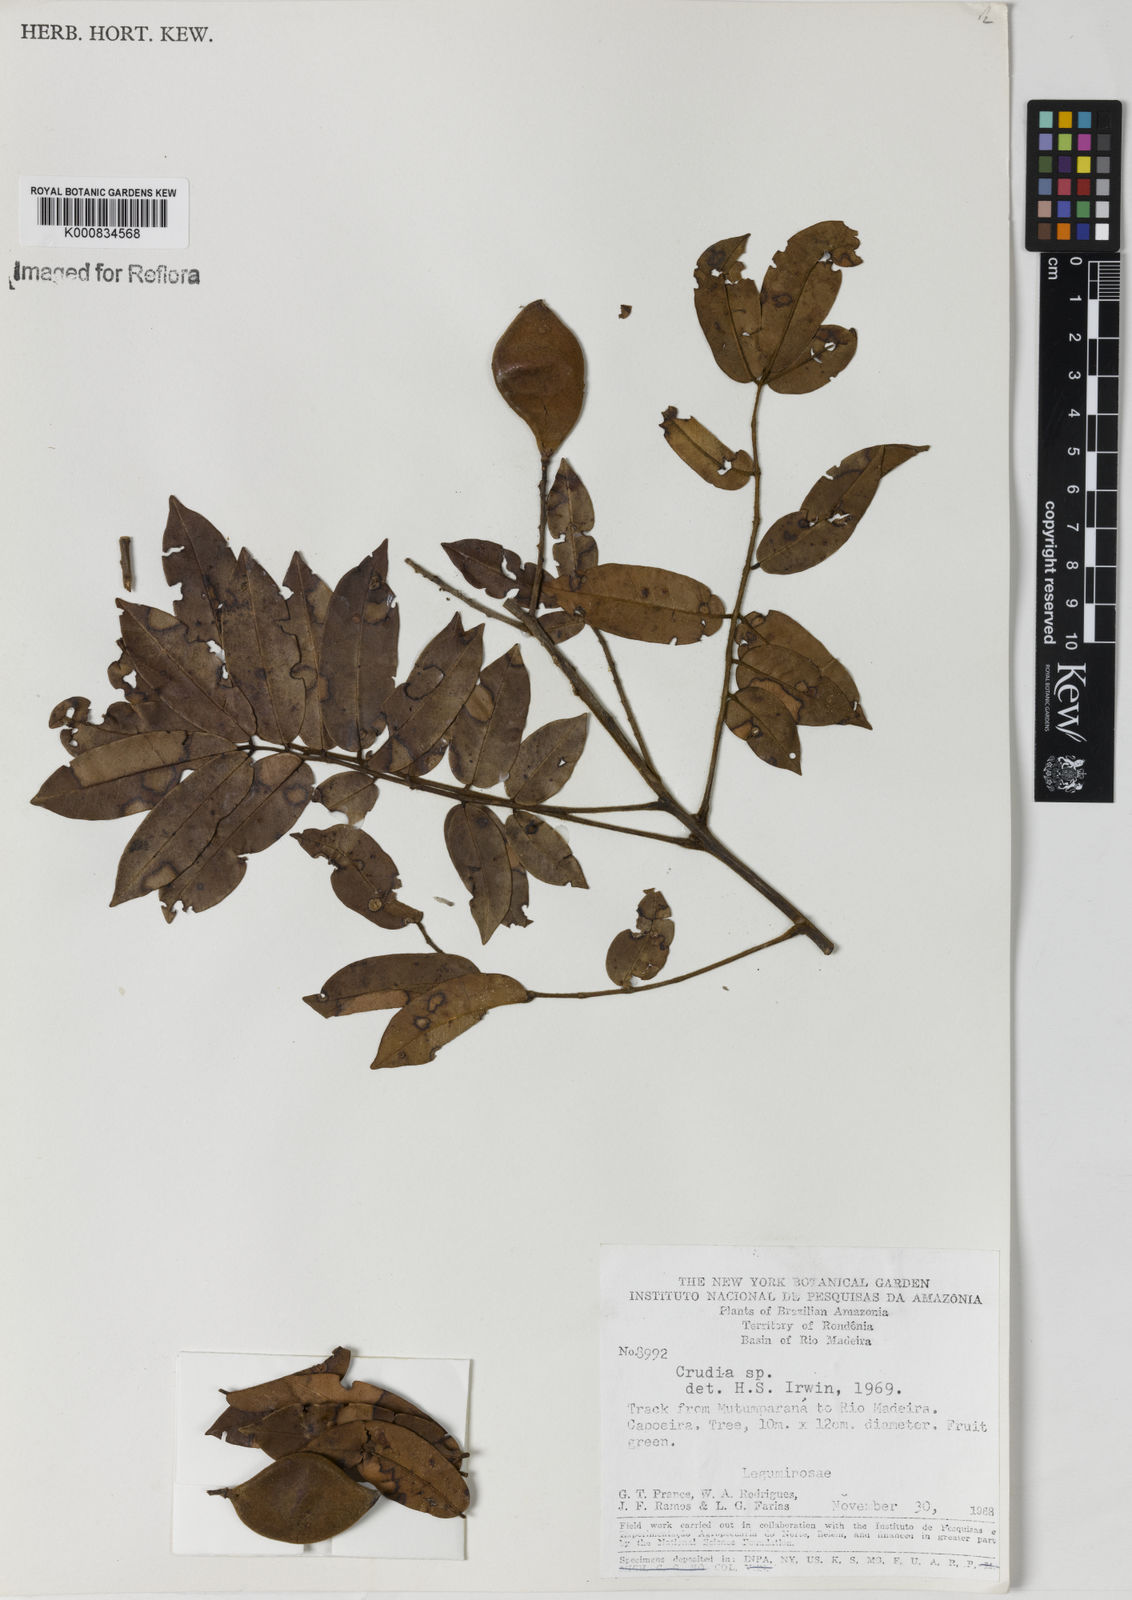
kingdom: Plantae
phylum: Tracheophyta
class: Magnoliopsida
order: Fabales
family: Fabaceae
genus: Crudia
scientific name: Crudia
